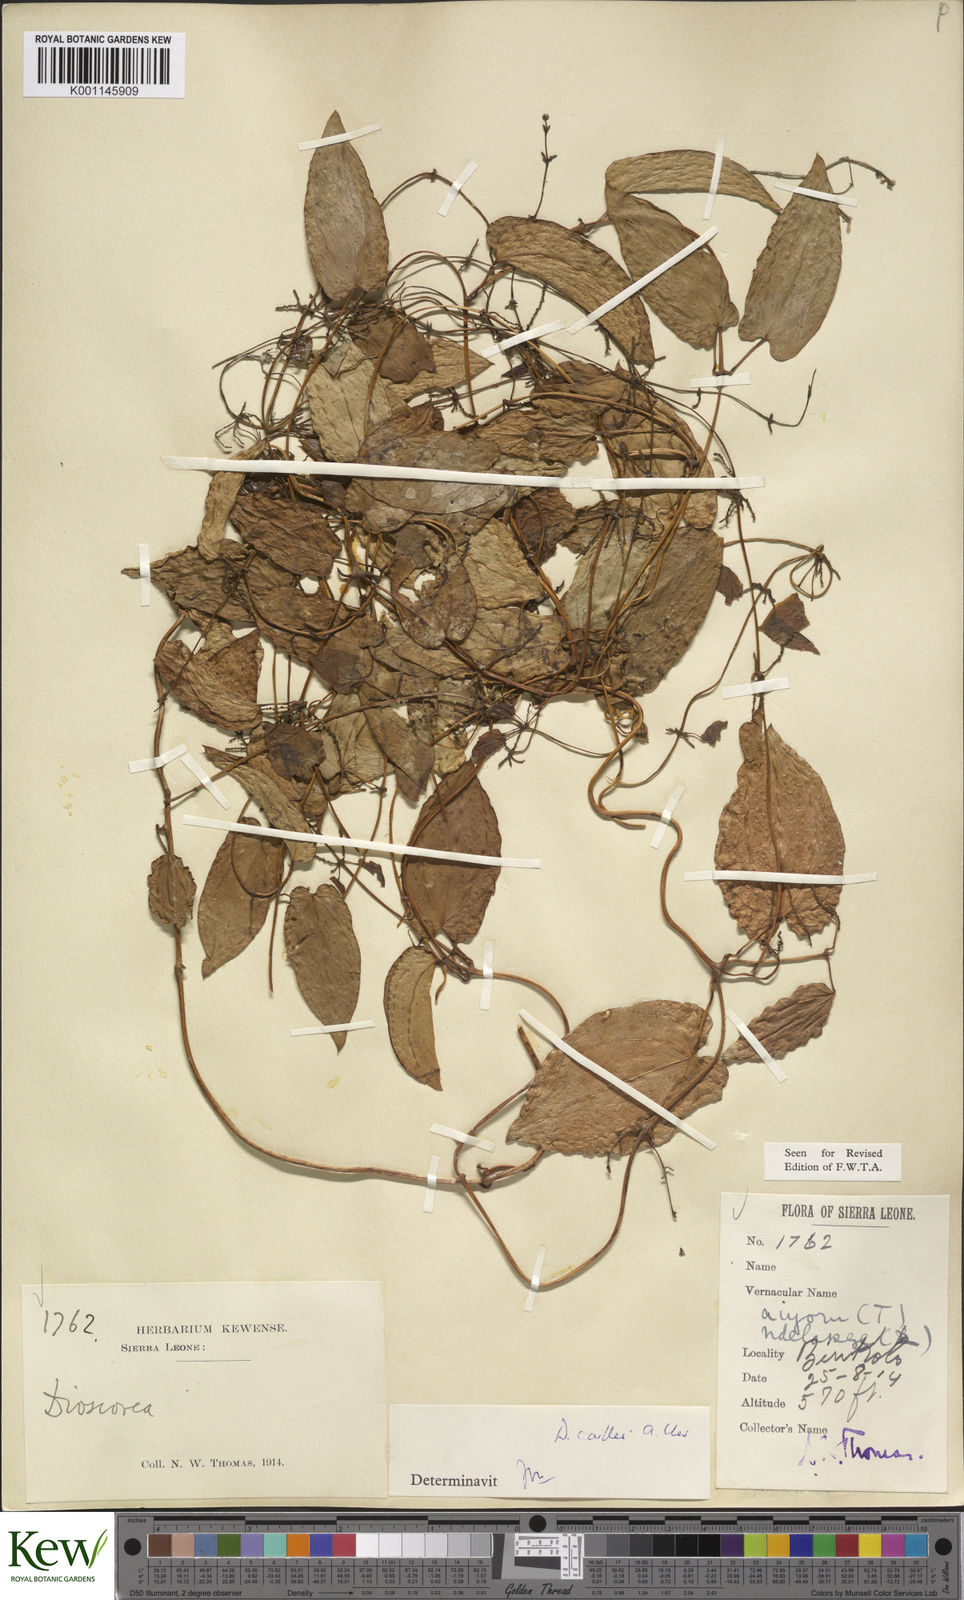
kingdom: Plantae
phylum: Tracheophyta
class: Liliopsida
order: Dioscoreales
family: Dioscoreaceae
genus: Dioscorea
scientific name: Dioscorea togoensis
